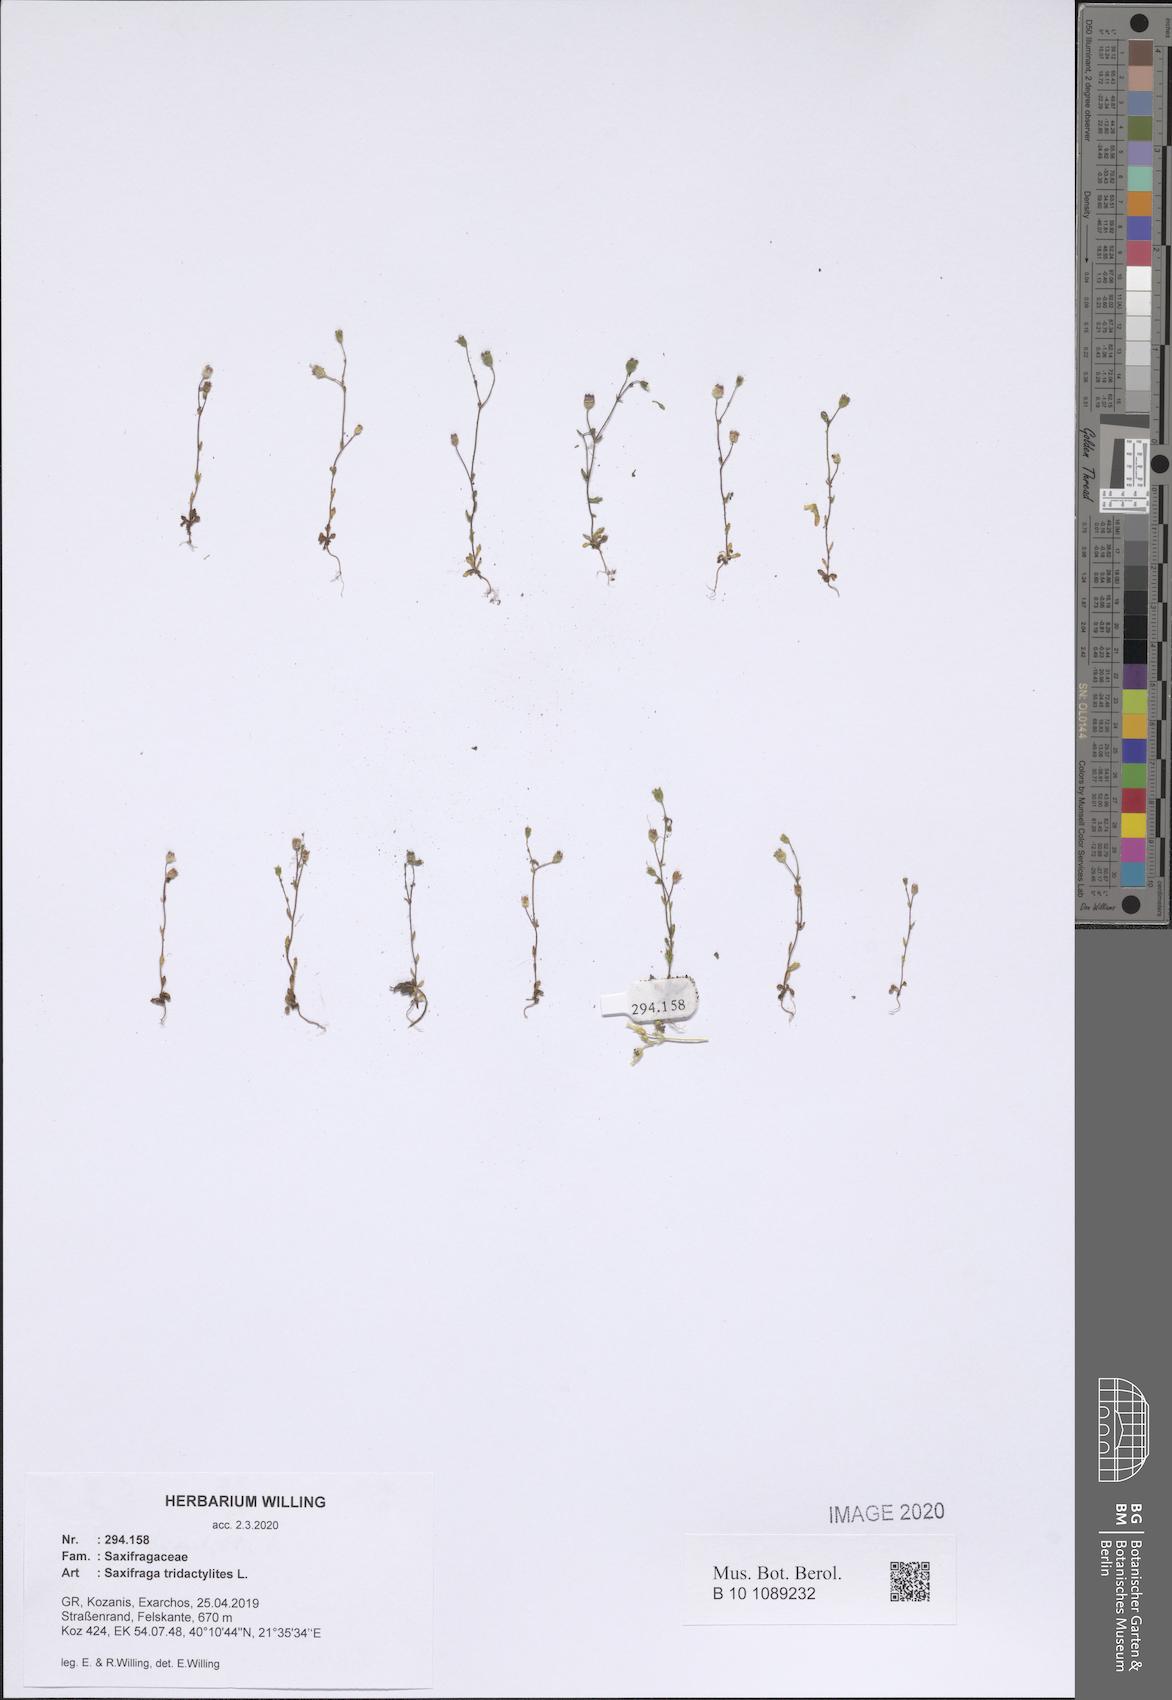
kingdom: Plantae
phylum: Tracheophyta
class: Magnoliopsida
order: Saxifragales
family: Saxifragaceae
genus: Saxifraga
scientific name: Saxifraga tridactylites
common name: Rue-leaved saxifrage
